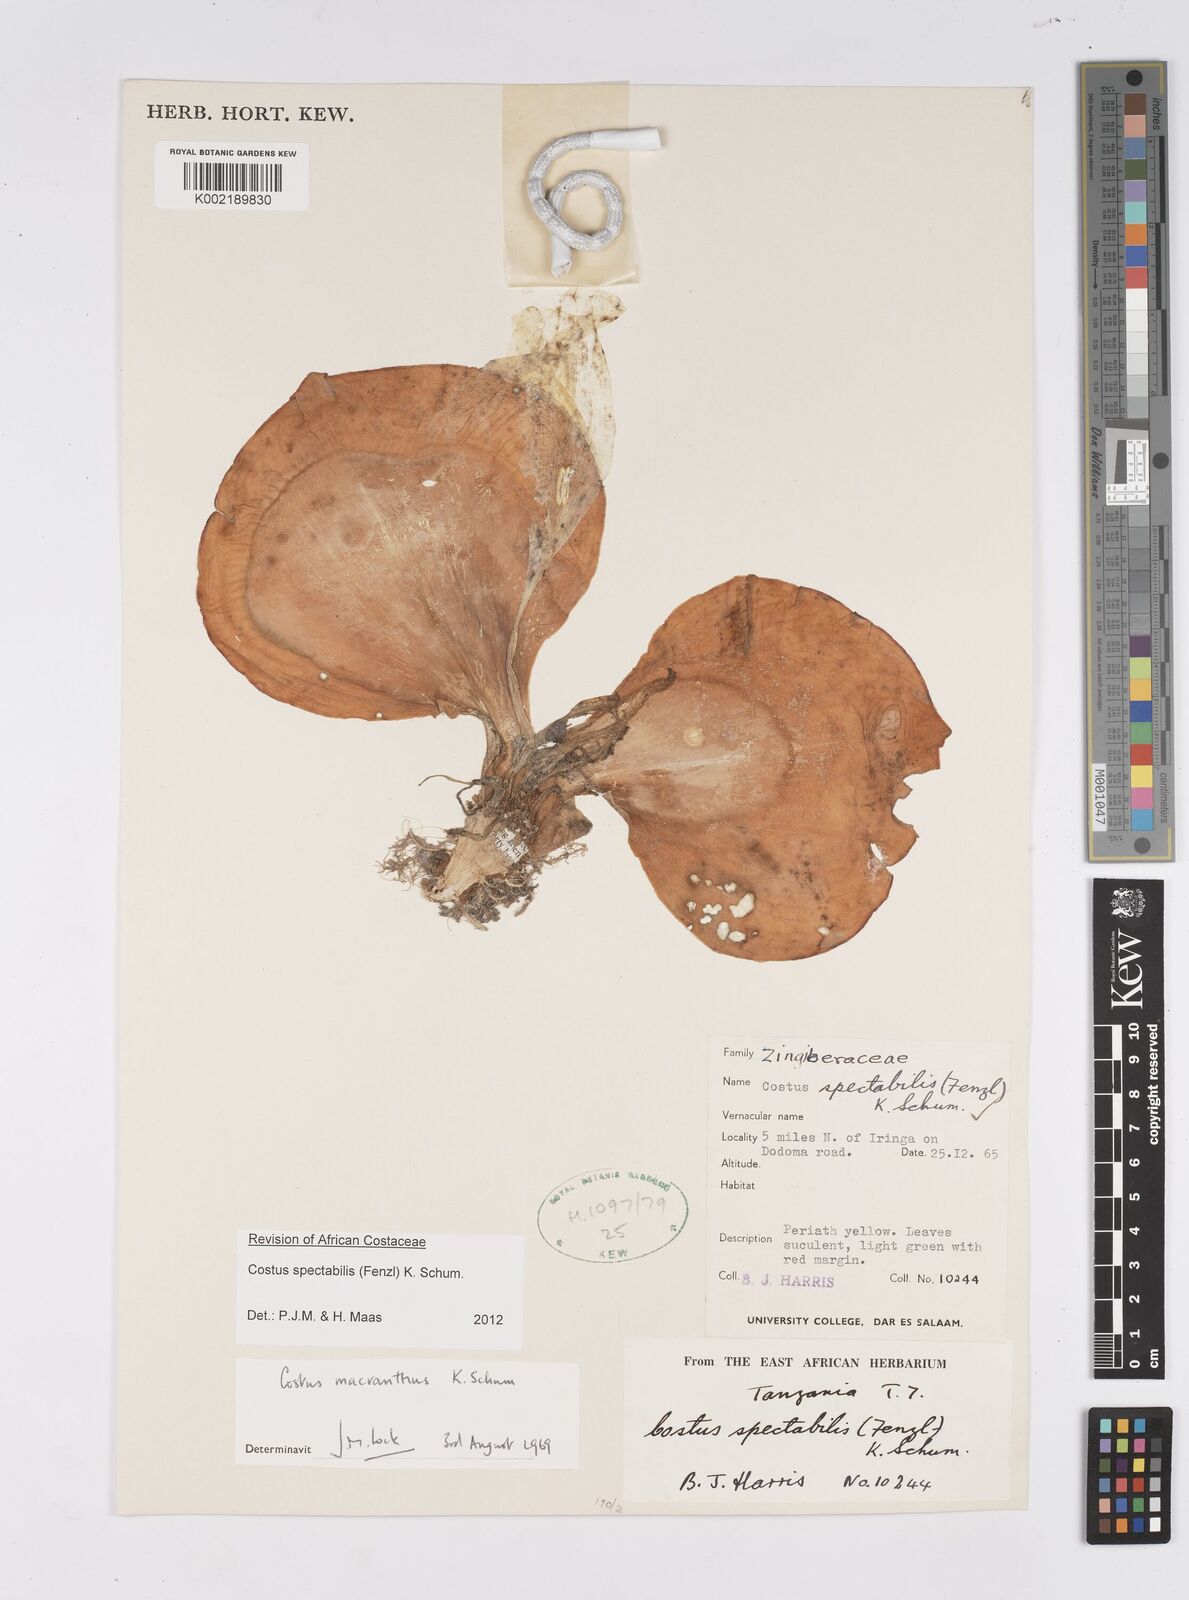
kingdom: Plantae
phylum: Tracheophyta
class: Liliopsida
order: Zingiberales
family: Costaceae
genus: Costus
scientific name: Costus spectabilis
